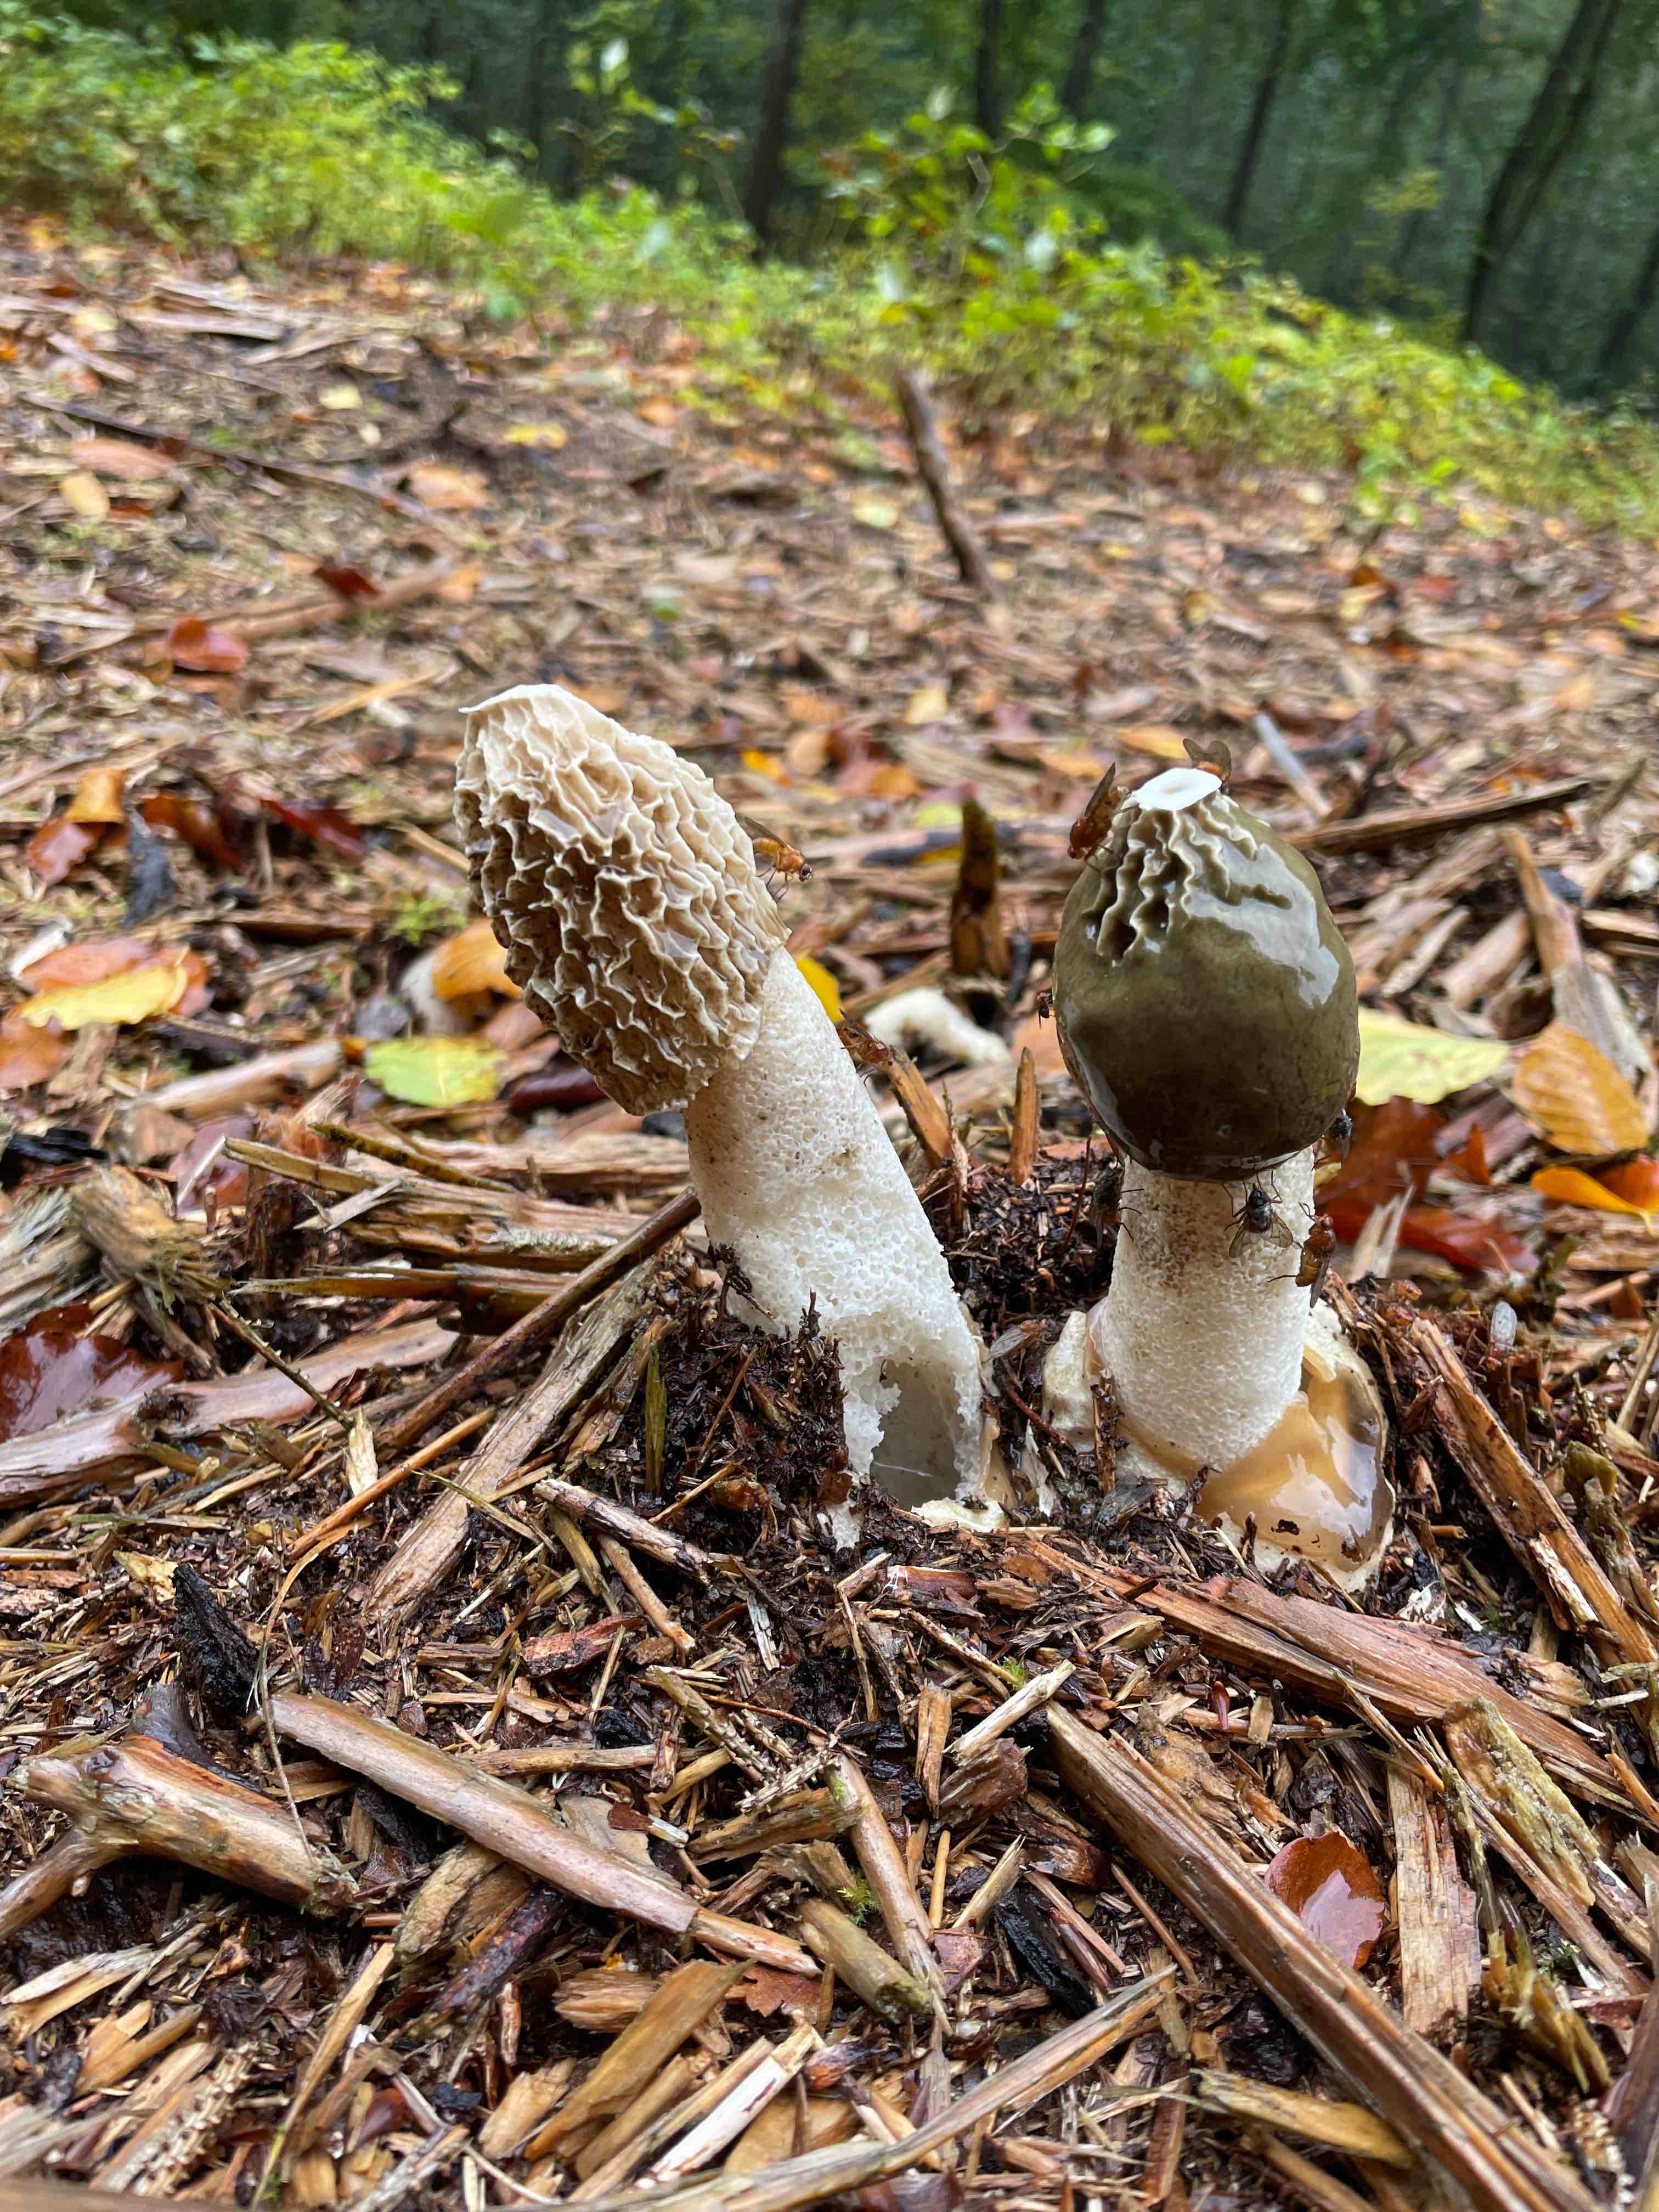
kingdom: Fungi
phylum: Basidiomycota
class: Agaricomycetes
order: Phallales
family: Phallaceae
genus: Phallus
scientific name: Phallus impudicus
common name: almindelig stinksvamp
